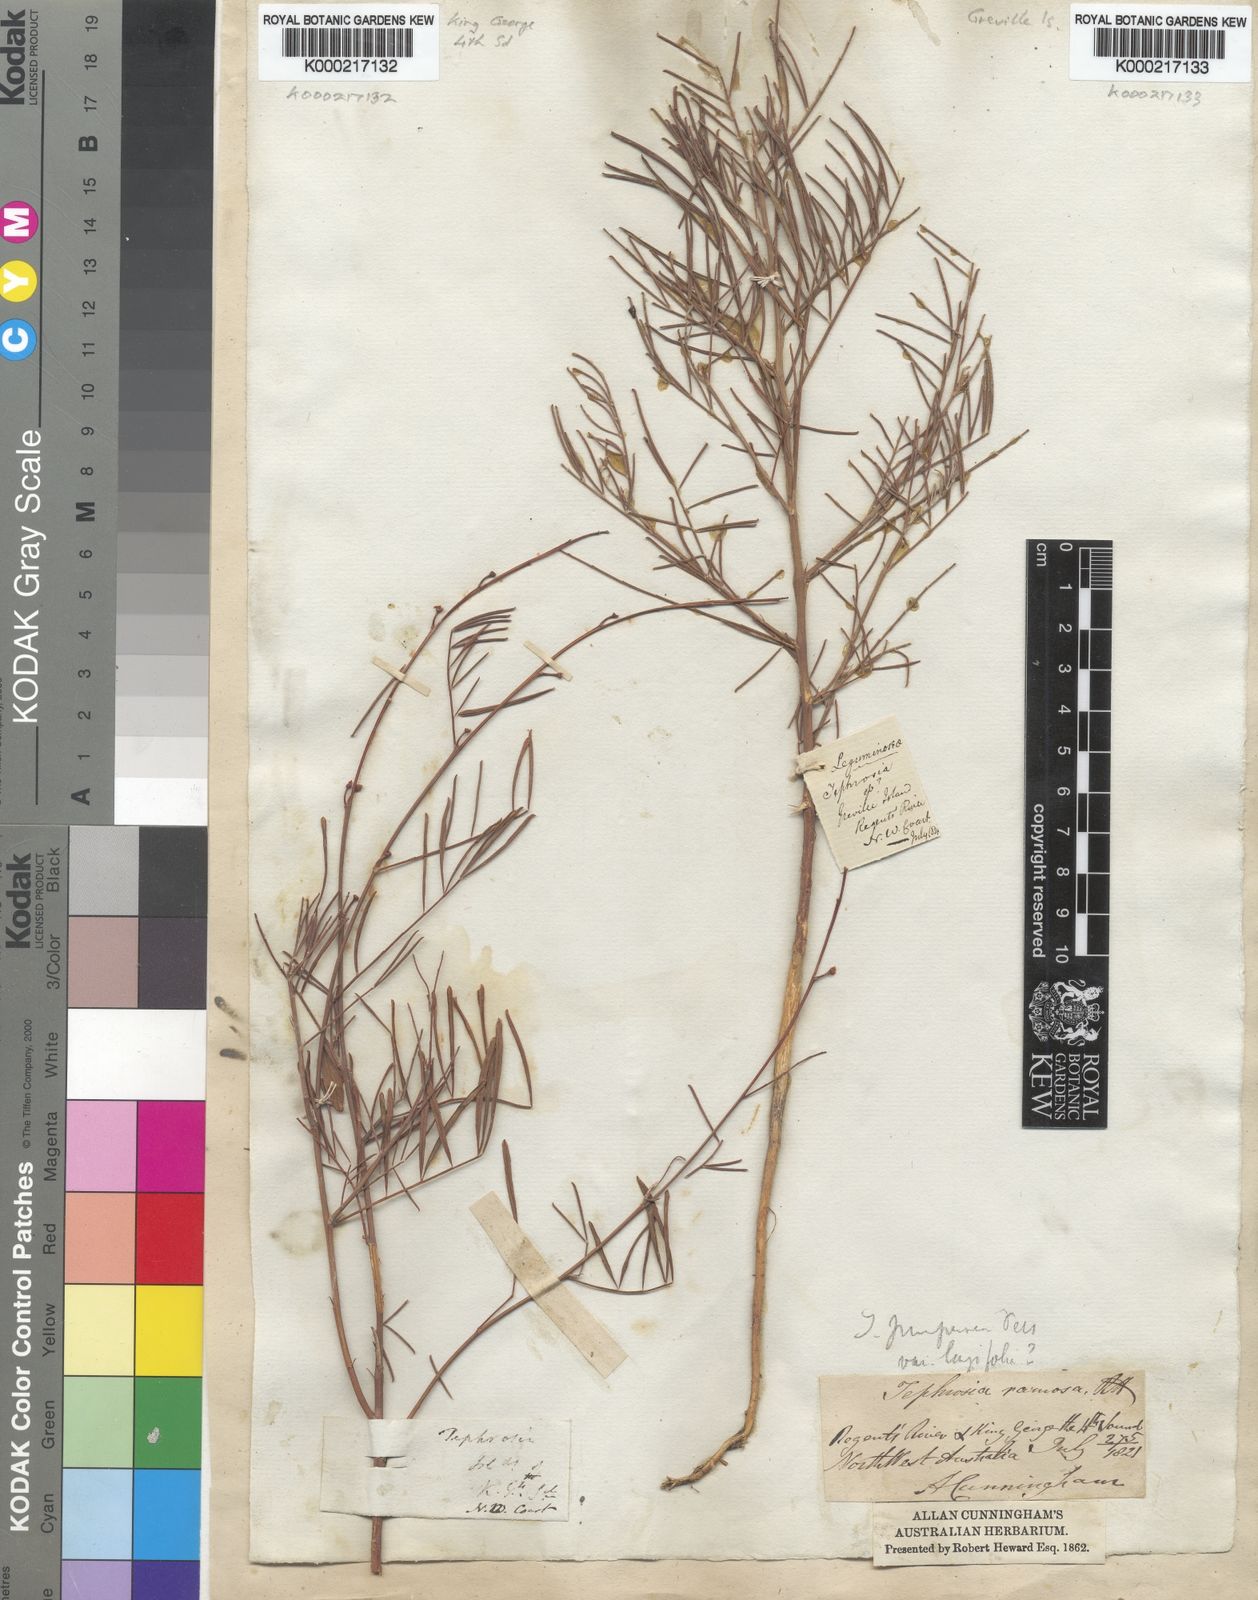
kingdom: Plantae
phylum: Tracheophyta
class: Magnoliopsida
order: Fabales
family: Fabaceae
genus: Tephrosia
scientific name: Tephrosia brachyodon
